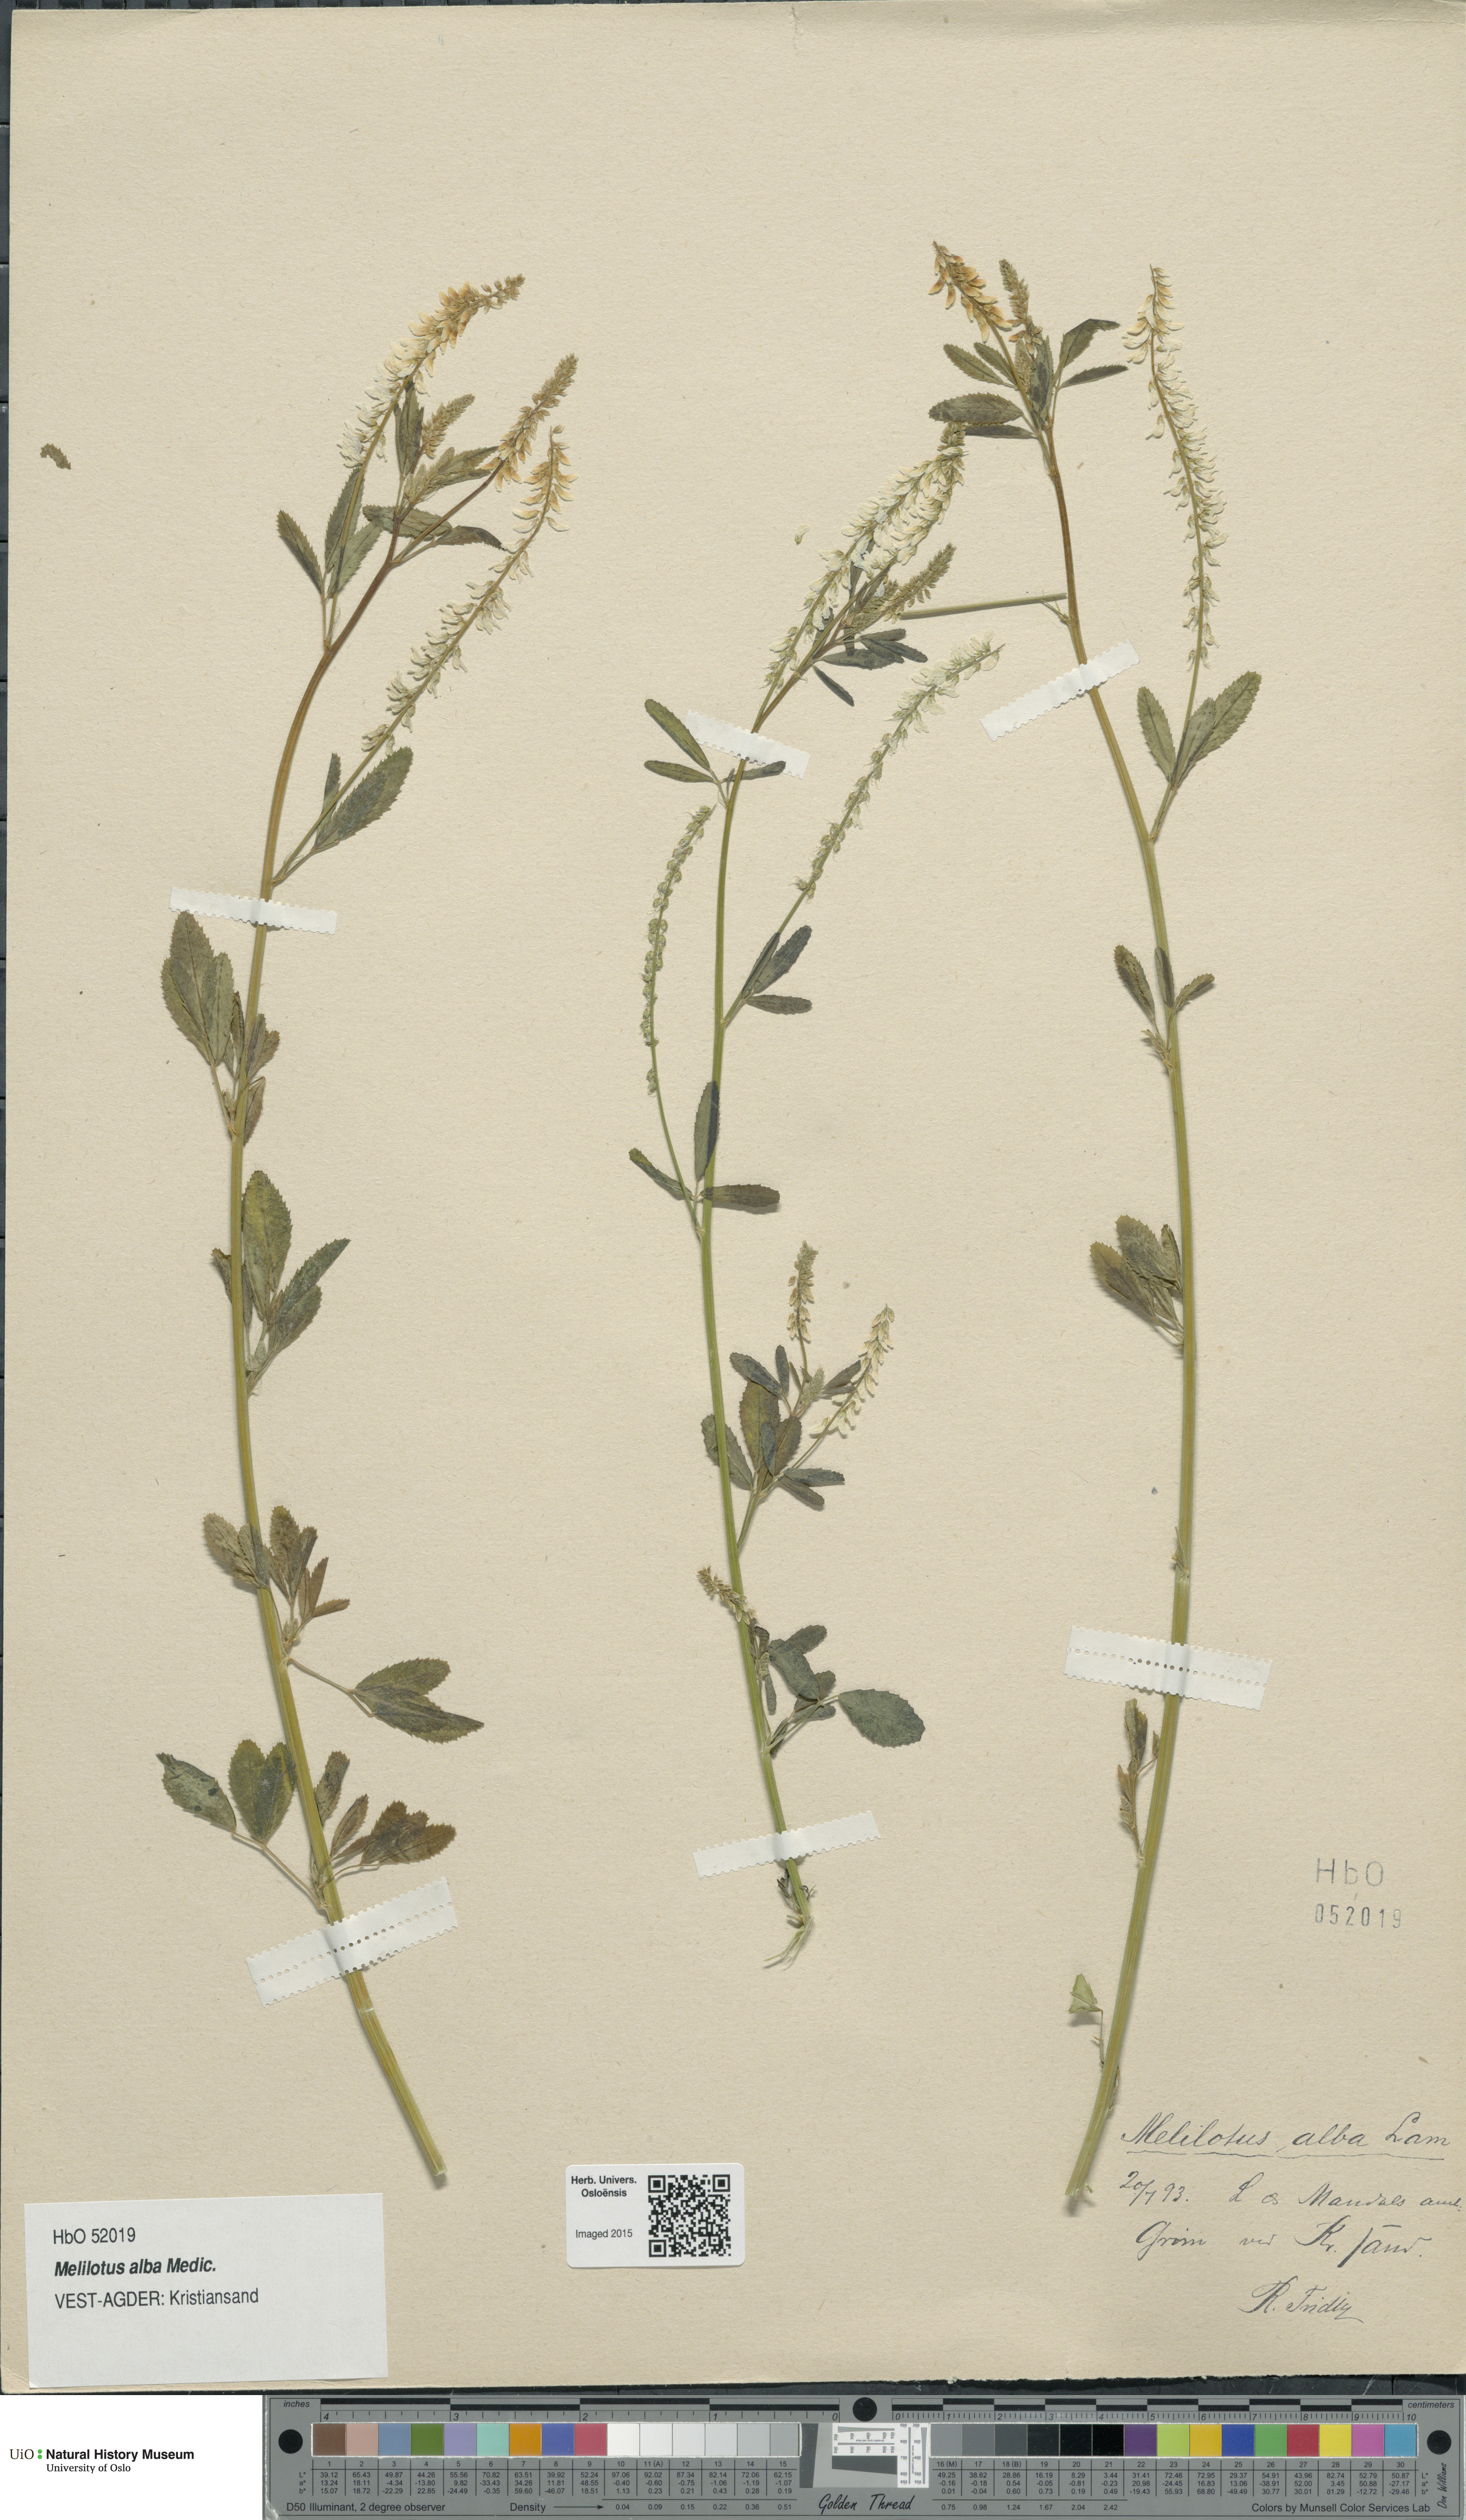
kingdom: Plantae
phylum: Tracheophyta
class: Magnoliopsida
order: Fabales
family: Fabaceae
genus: Melilotus
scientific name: Melilotus albus
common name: White melilot
